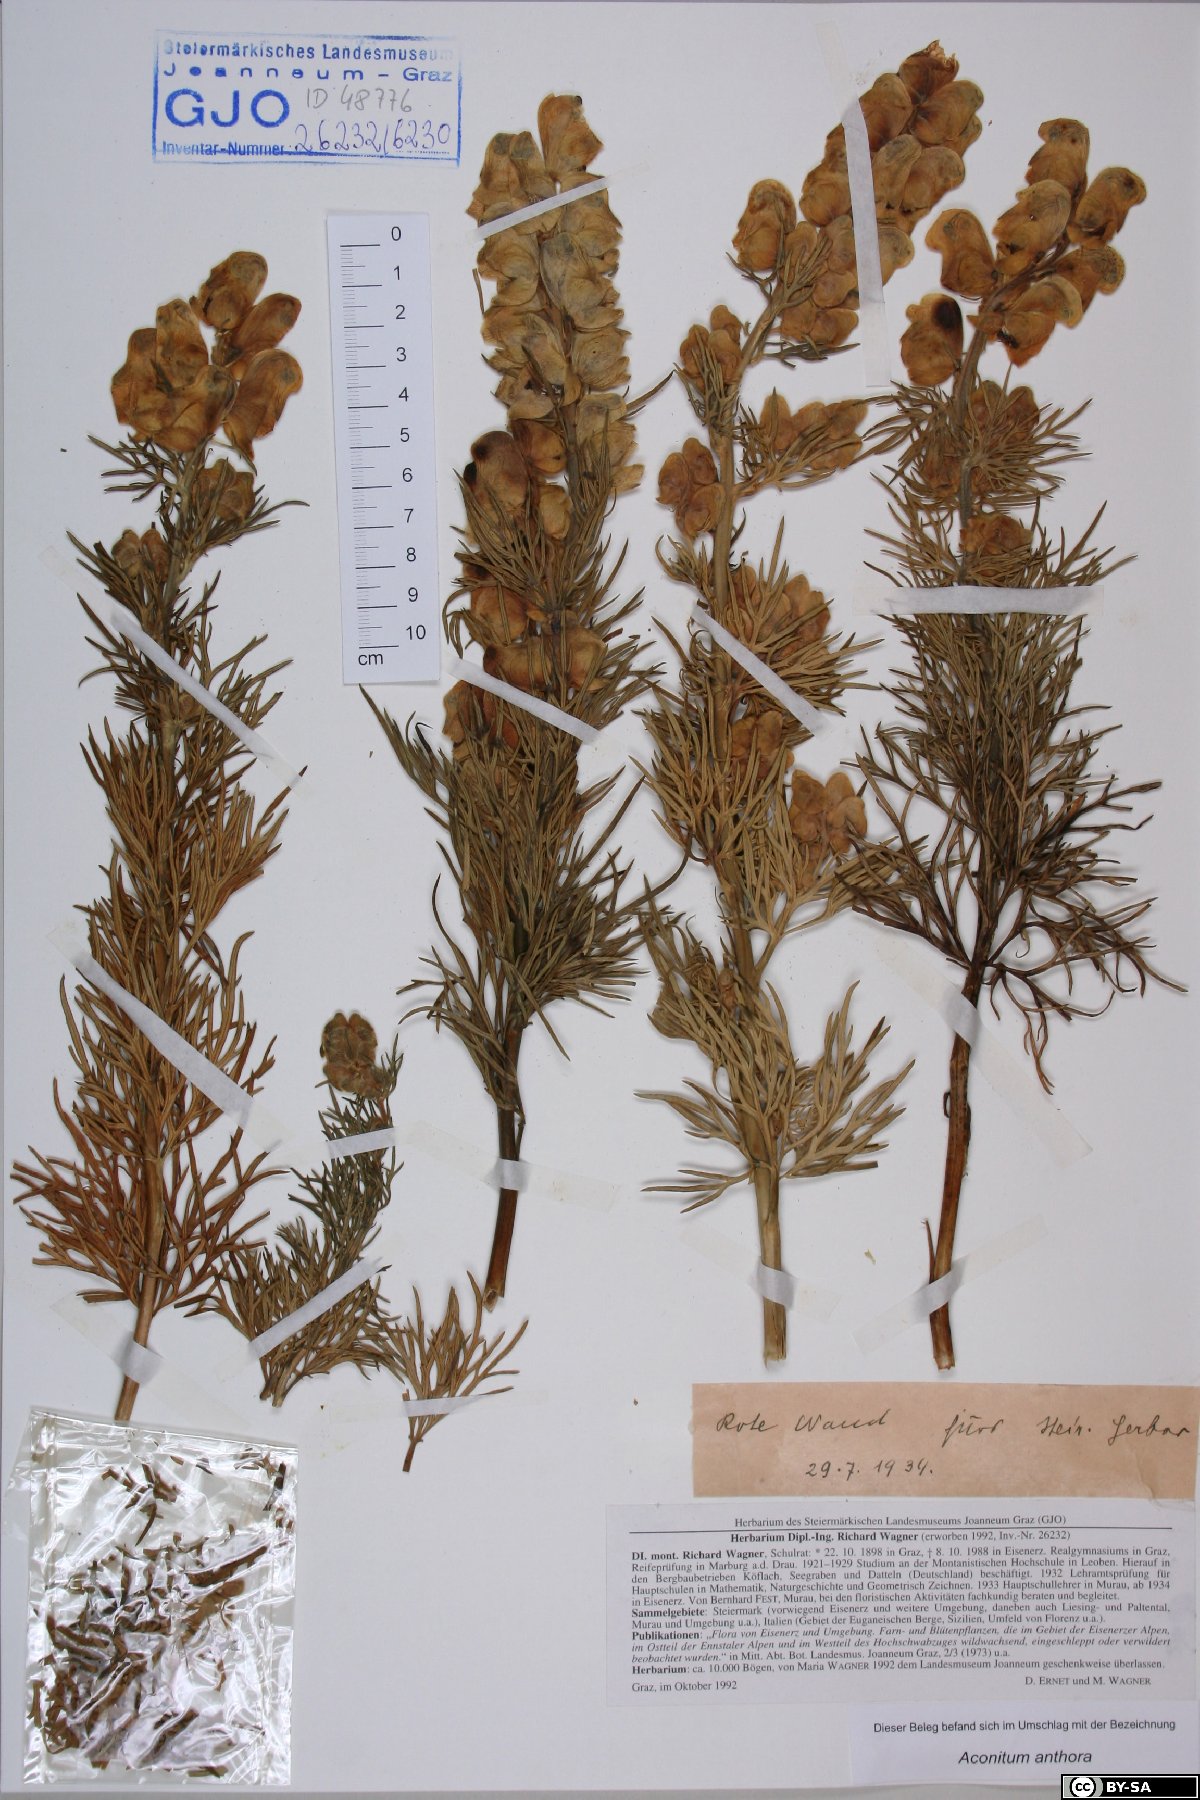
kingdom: Plantae
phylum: Tracheophyta
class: Magnoliopsida
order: Ranunculales
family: Ranunculaceae
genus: Aconitum
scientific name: Aconitum anthora
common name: Yellow monkshood
